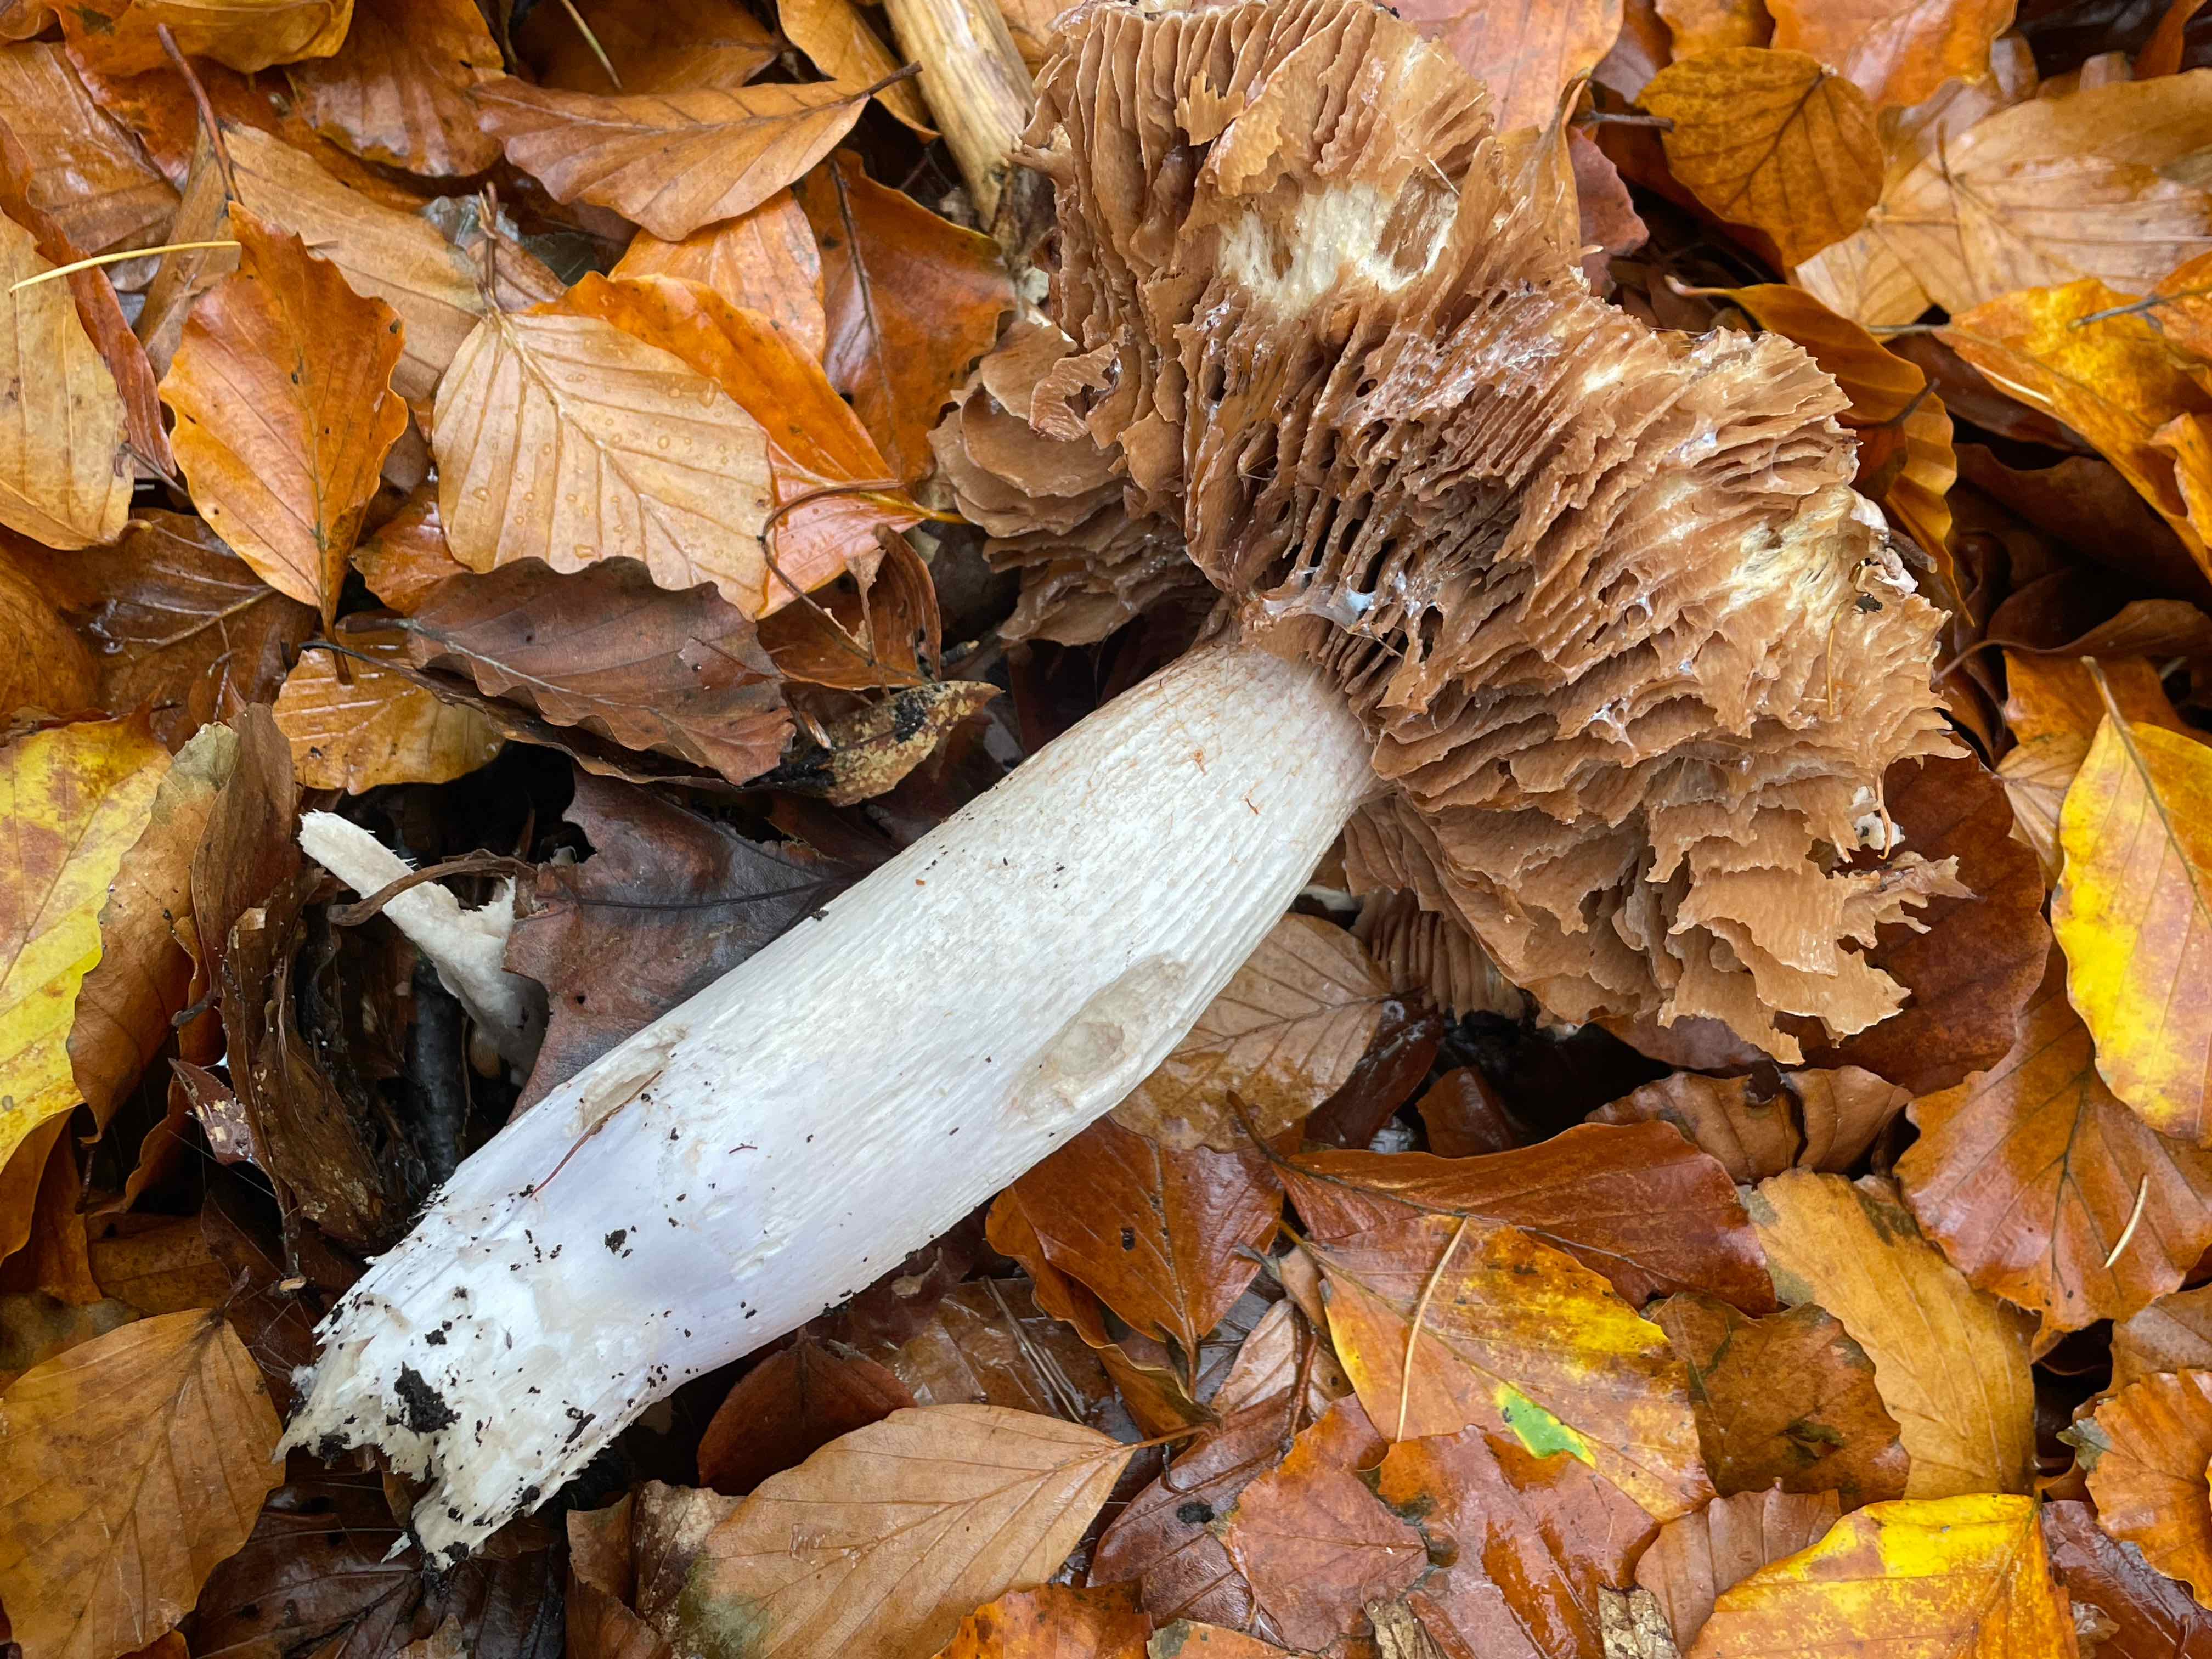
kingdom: Fungi
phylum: Basidiomycota
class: Agaricomycetes
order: Agaricales
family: Cortinariaceae
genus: Cortinarius
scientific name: Cortinarius elatior
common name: høj slørhat
